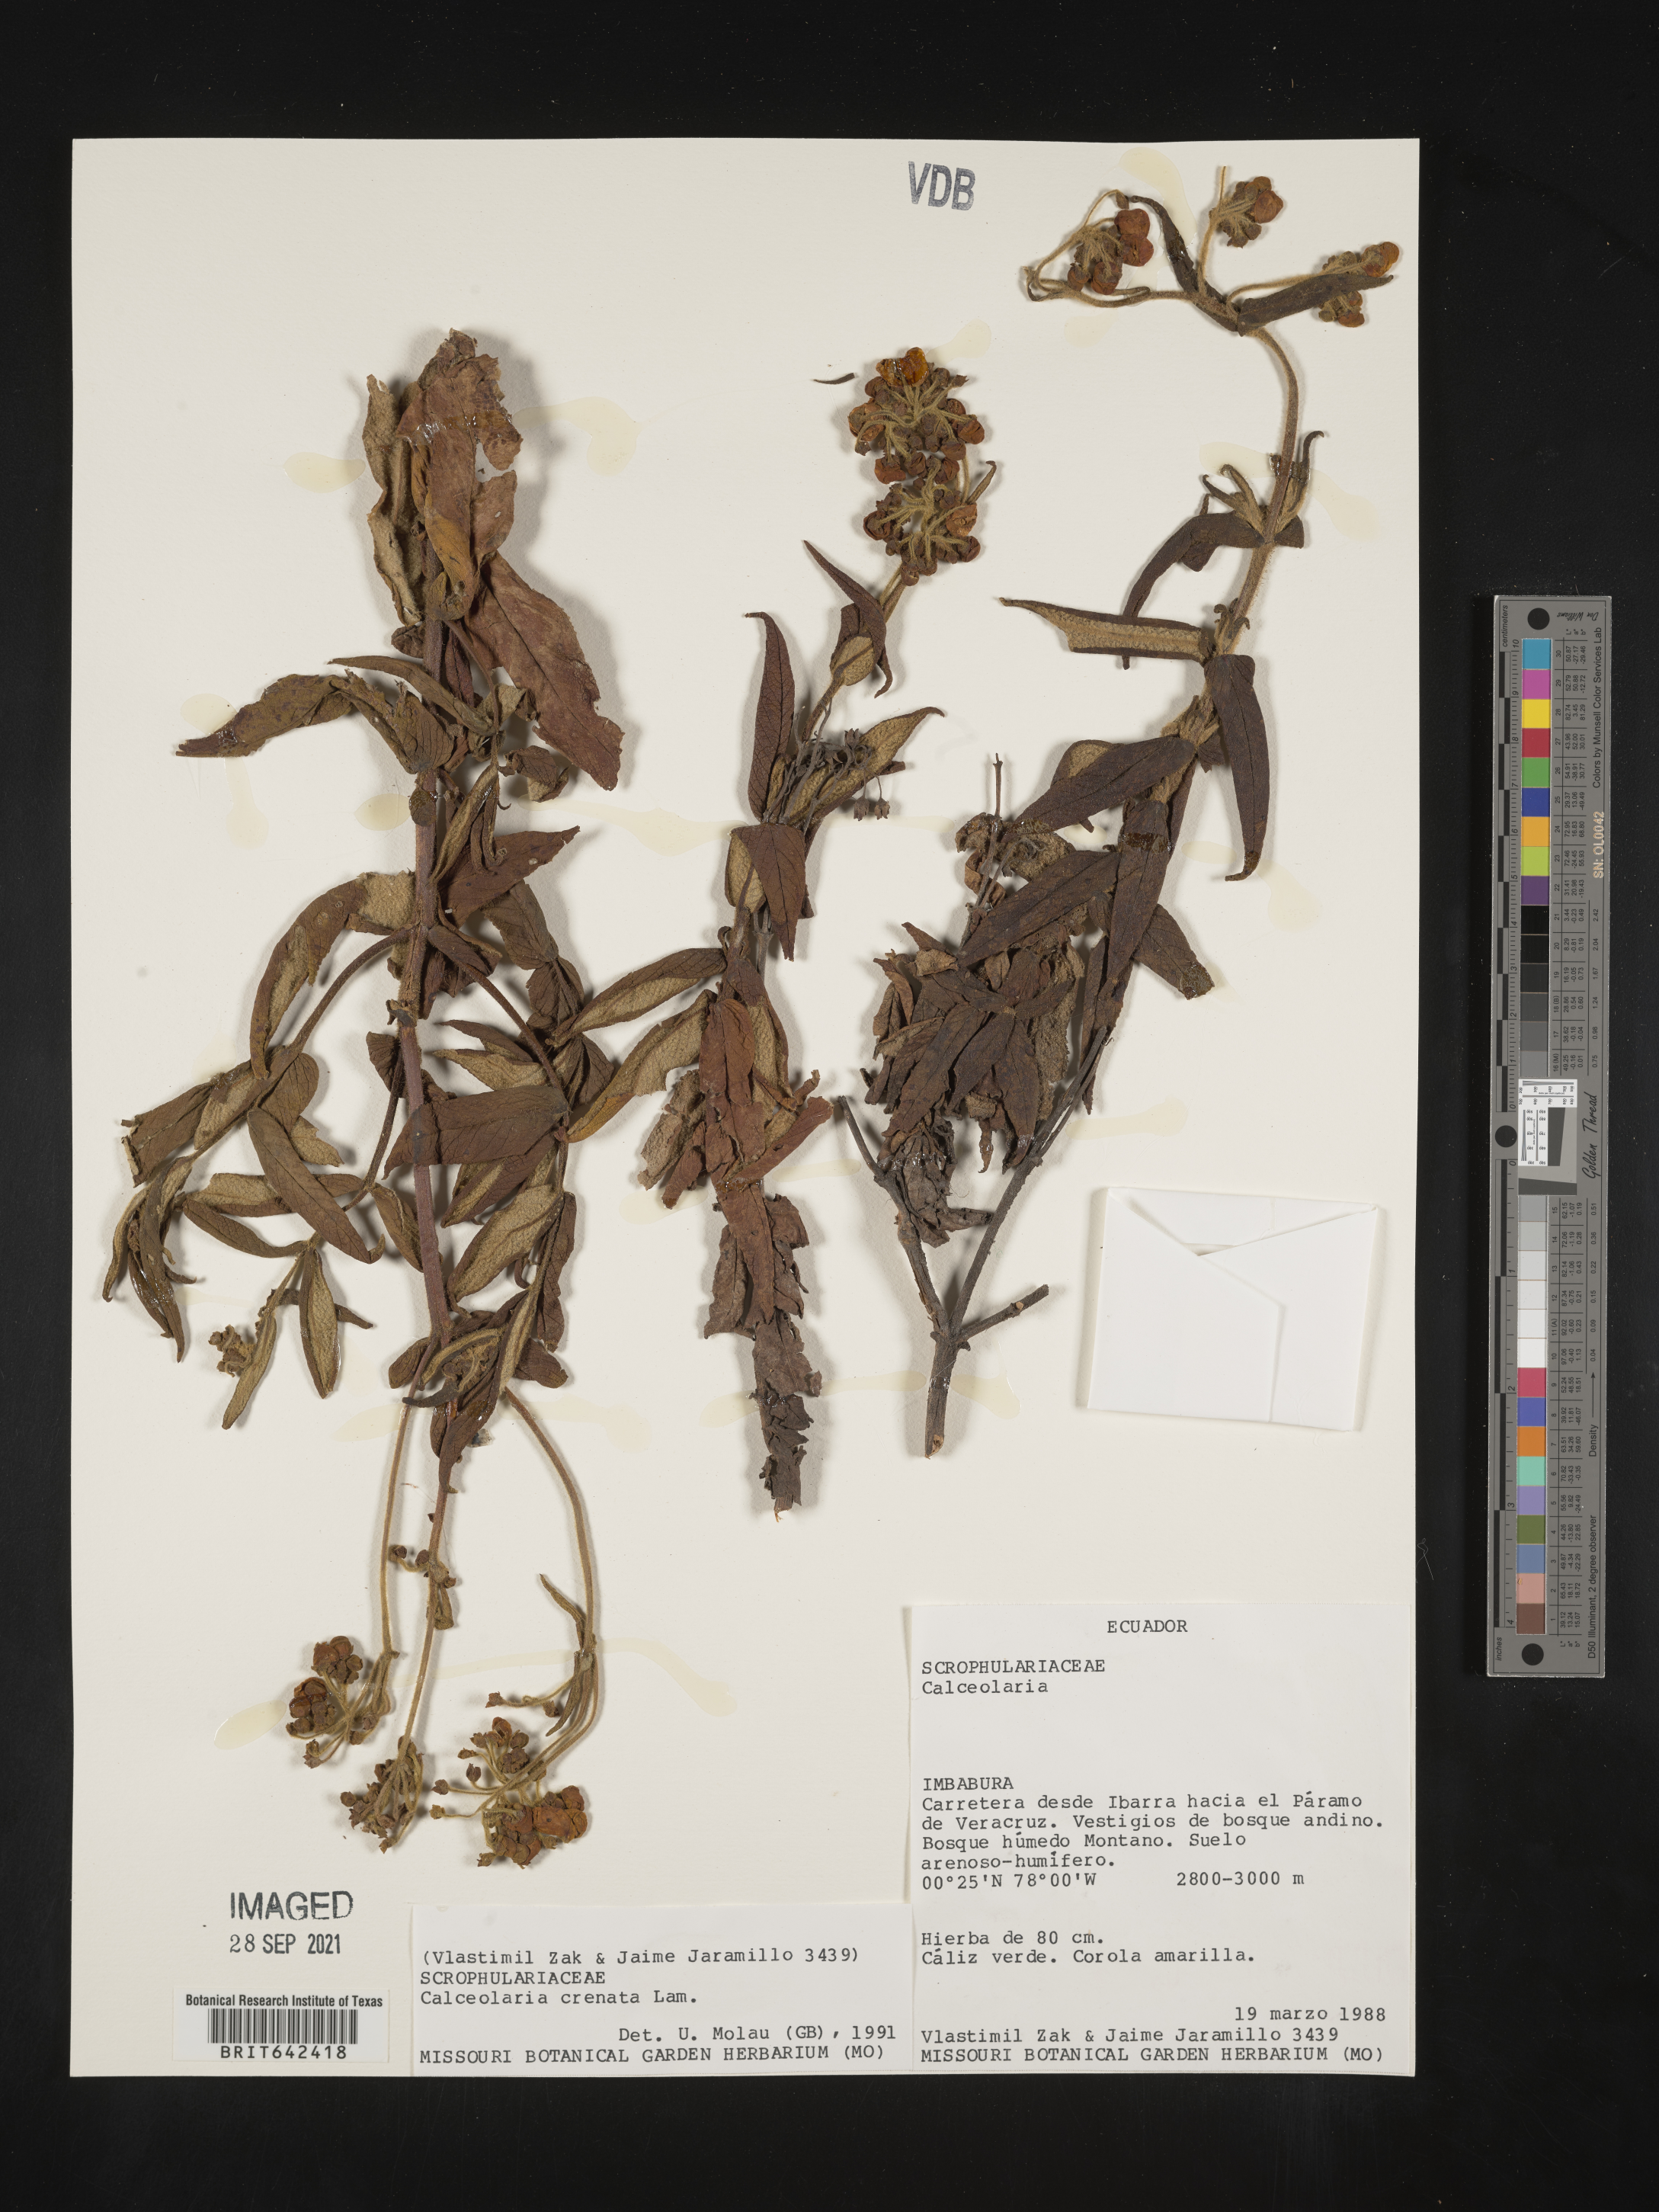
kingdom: Plantae
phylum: Tracheophyta
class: Magnoliopsida
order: Lamiales
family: Calceolariaceae
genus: Calceolaria
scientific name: Calceolaria crenata
